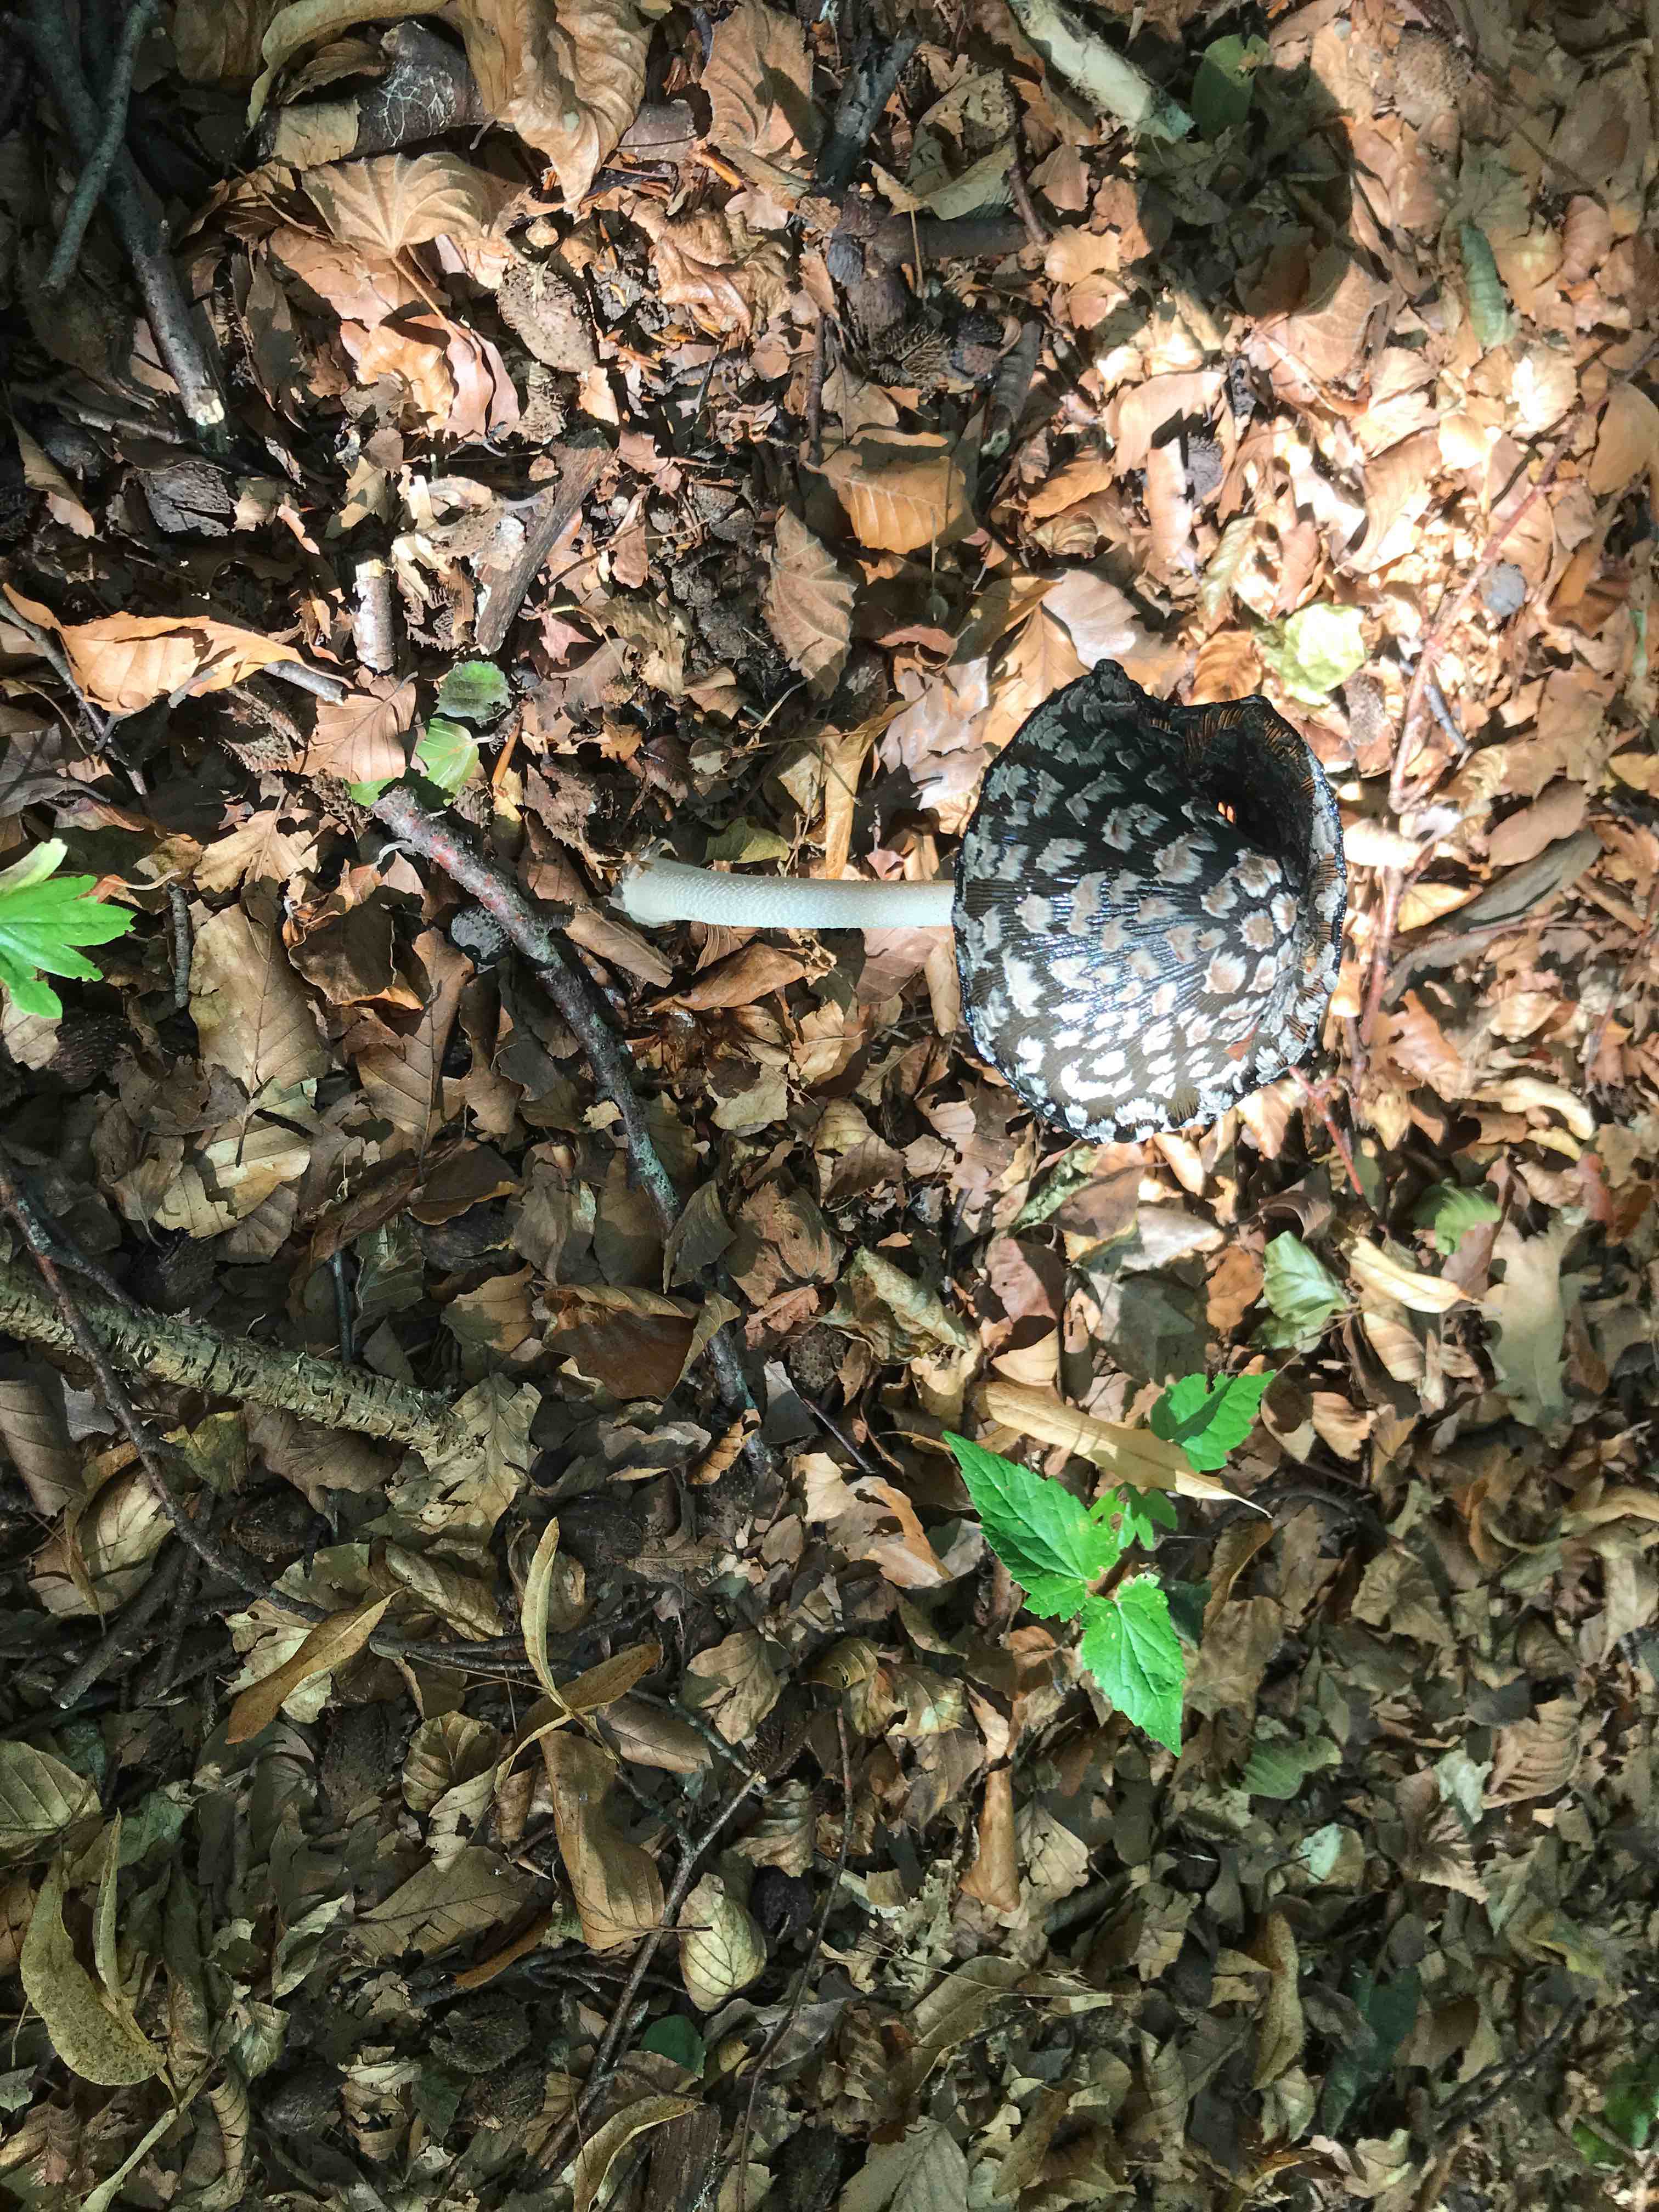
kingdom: Fungi
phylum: Basidiomycota
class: Agaricomycetes
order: Agaricales
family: Psathyrellaceae
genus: Coprinopsis
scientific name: Coprinopsis picacea
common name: skade-blækhat
